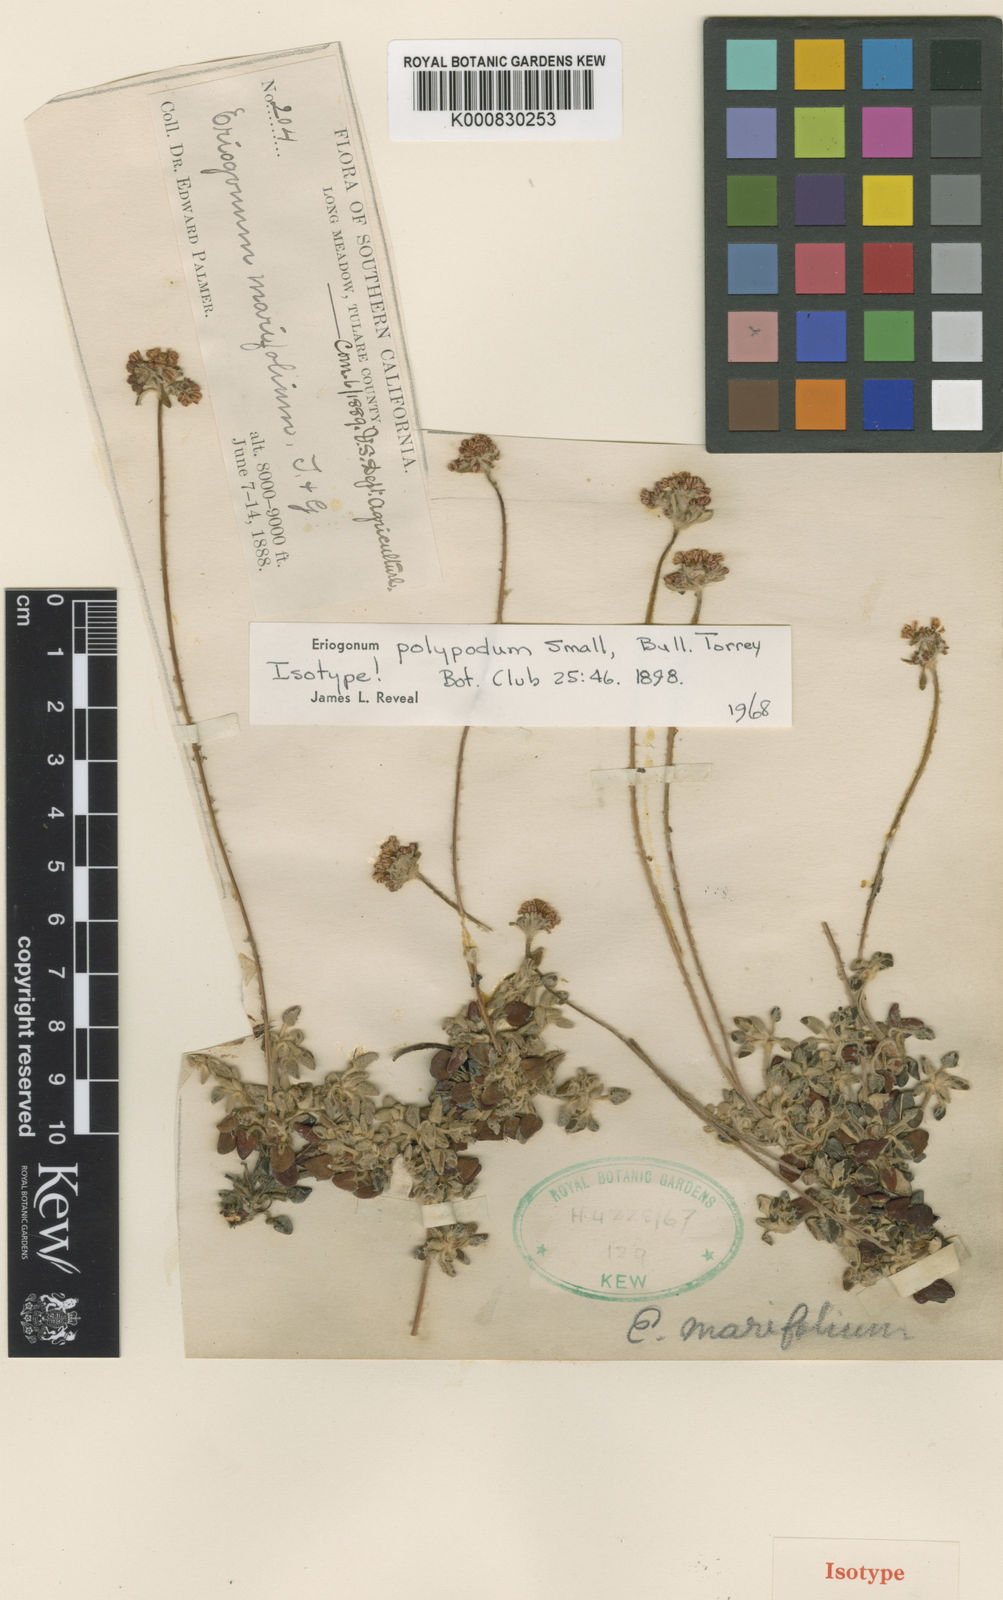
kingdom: Plantae
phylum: Tracheophyta
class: Magnoliopsida
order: Caryophyllales
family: Polygonaceae
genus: Eriogonum
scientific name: Eriogonum polypodum
